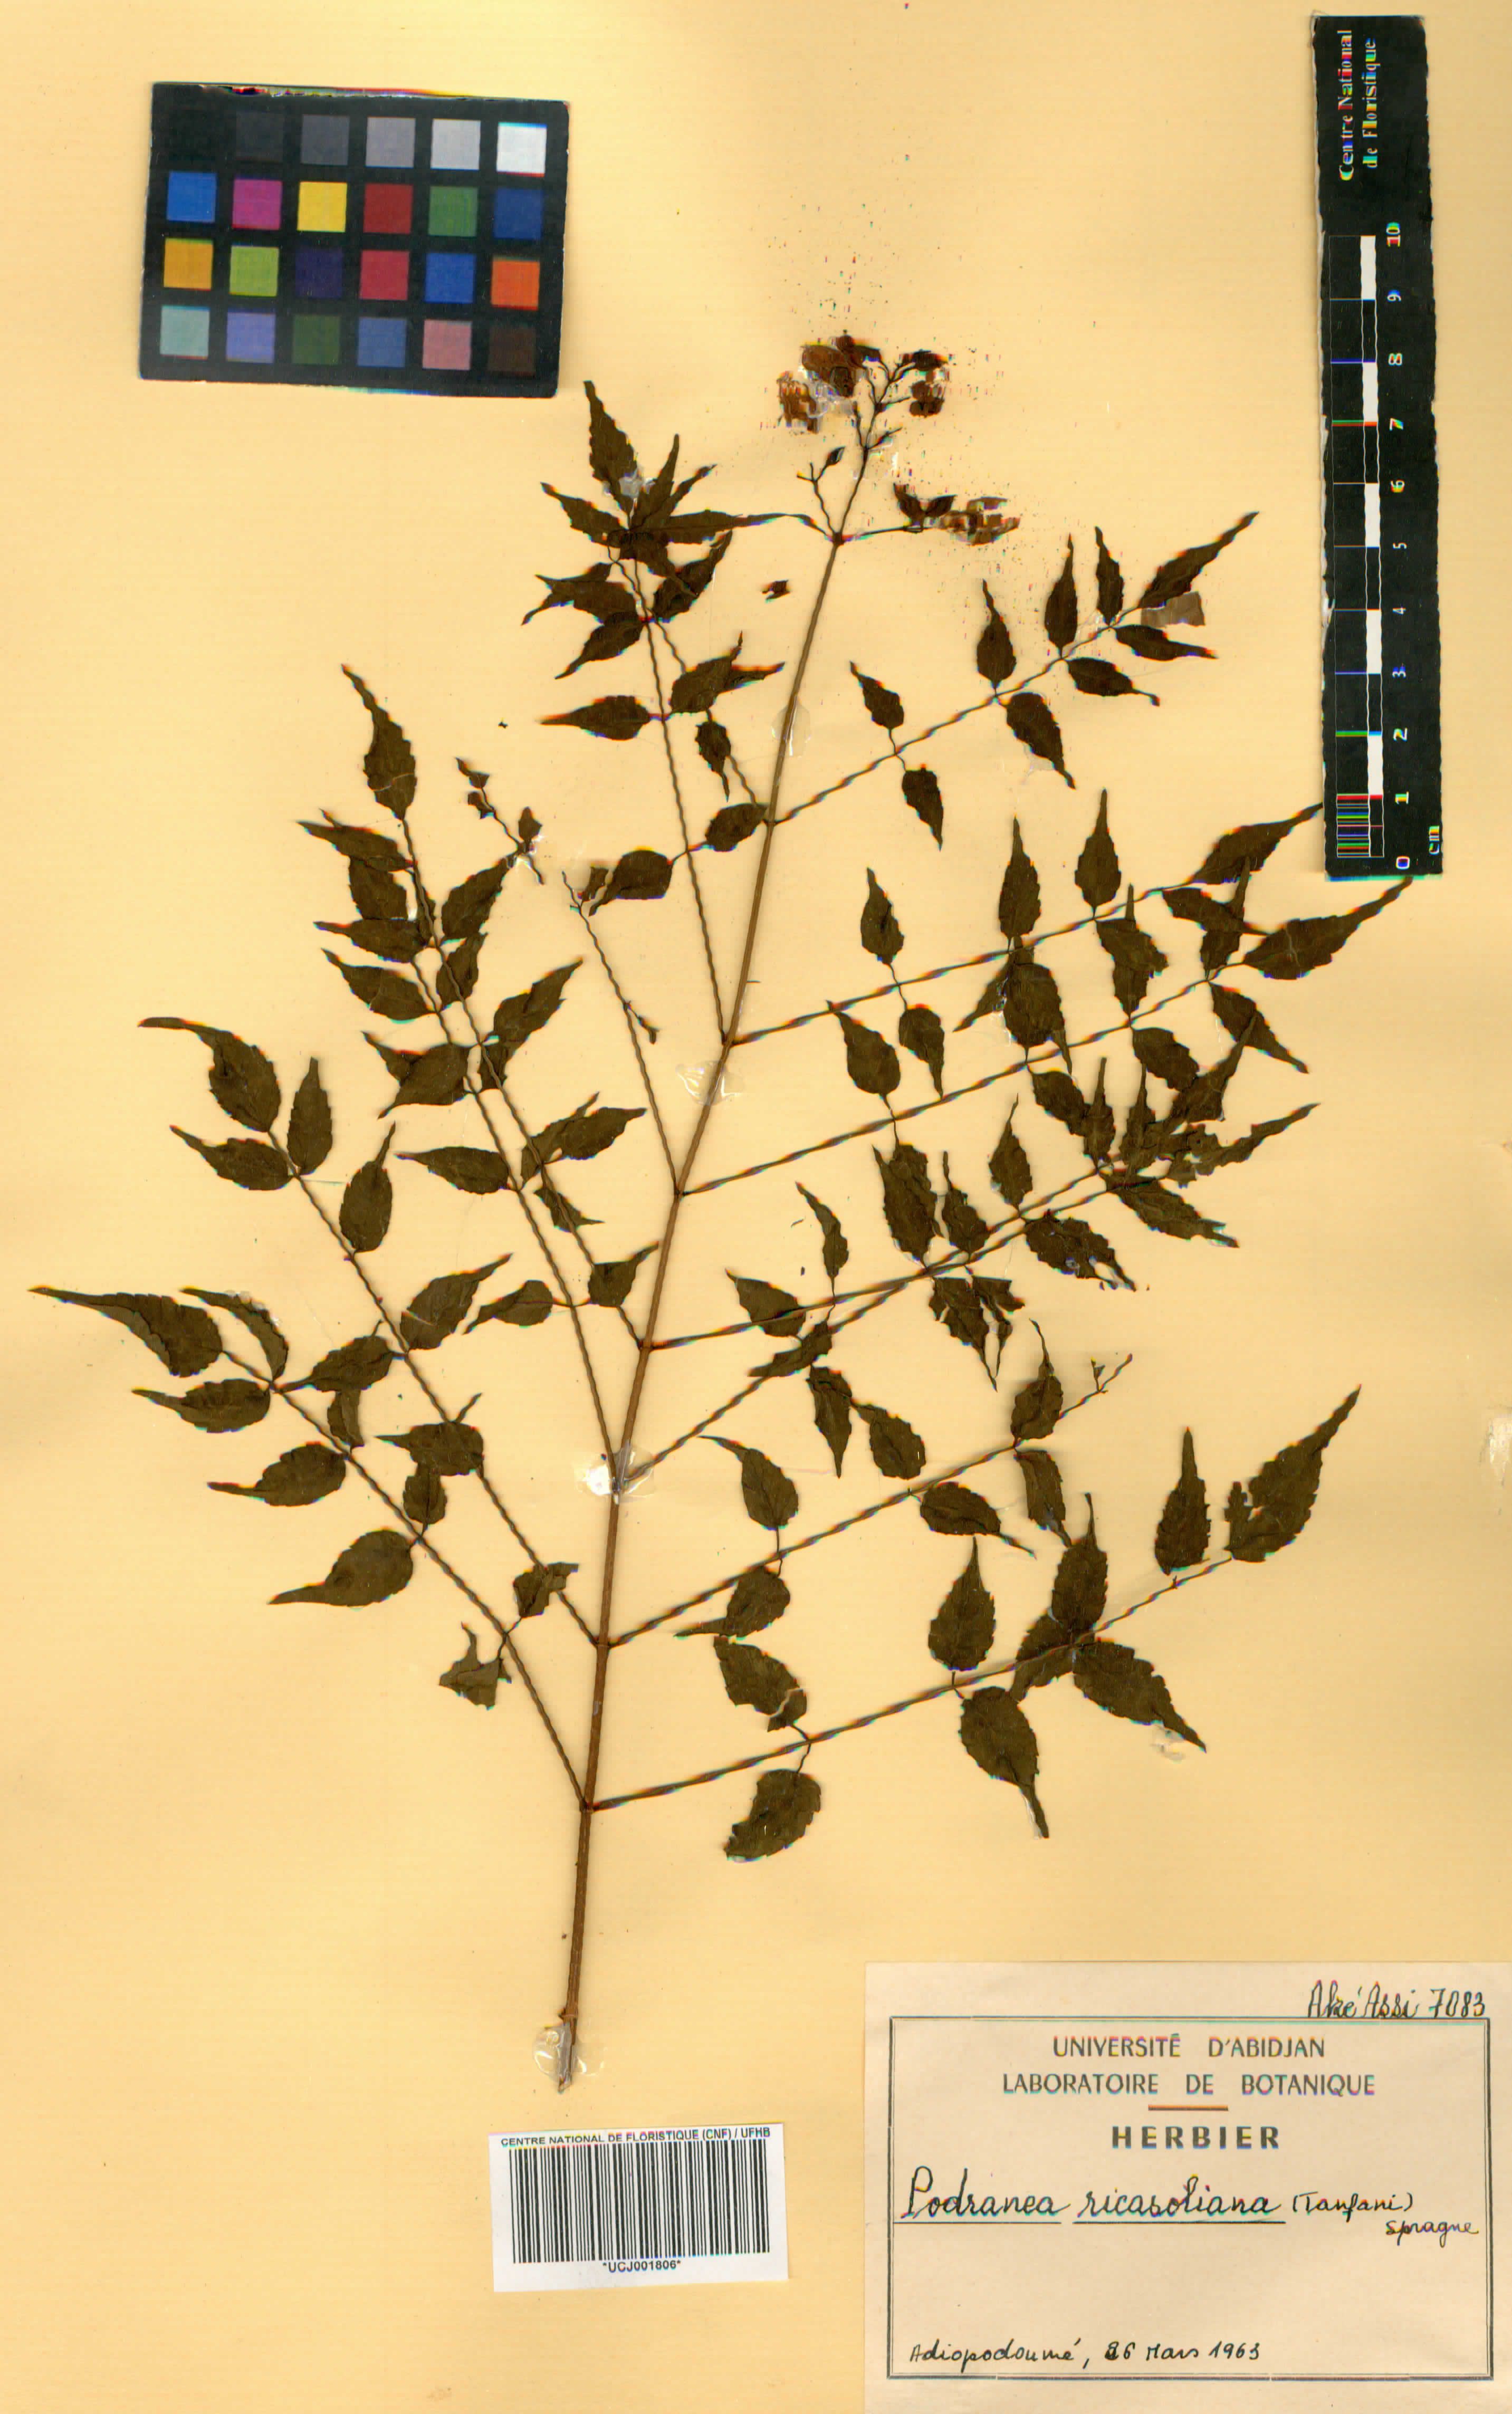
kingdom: Plantae
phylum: Tracheophyta
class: Magnoliopsida
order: Lamiales
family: Bignoniaceae
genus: Podranea
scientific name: Podranea ricasoliana
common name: Zimbabwe creeper
